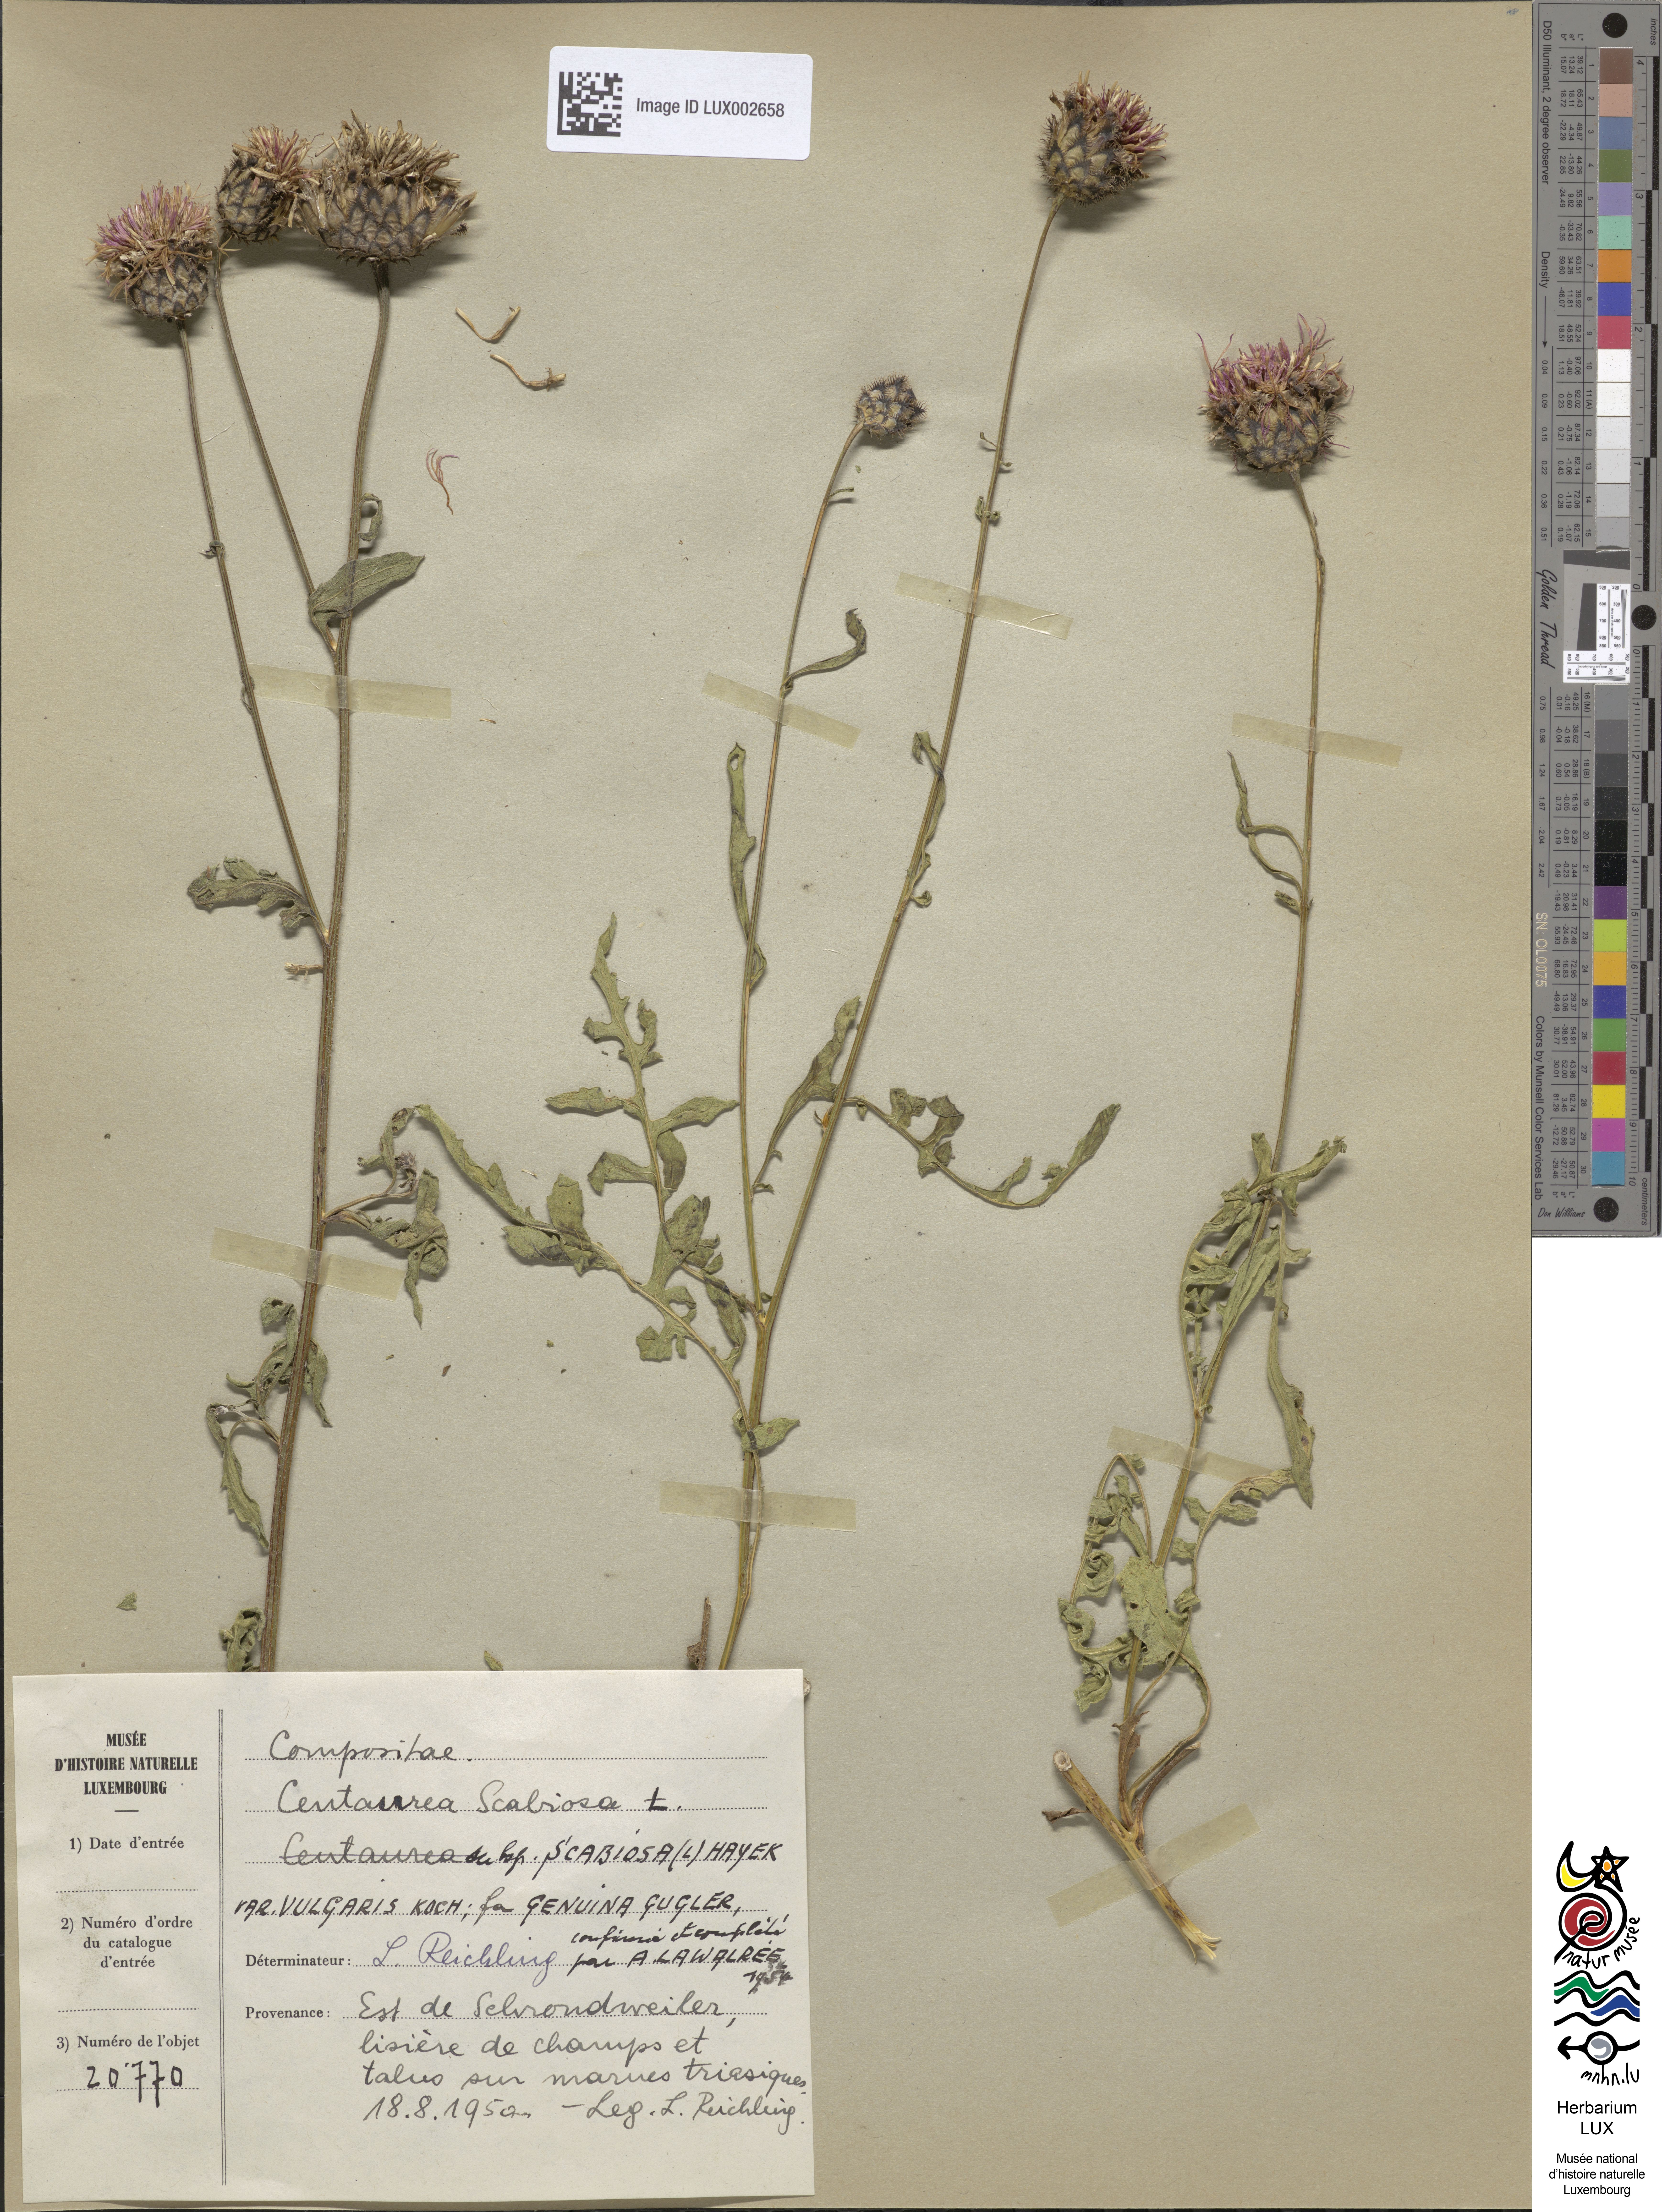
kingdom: Plantae
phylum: Tracheophyta
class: Magnoliopsida
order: Asterales
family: Asteraceae
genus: Centaurea
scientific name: Centaurea scabiosa
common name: Greater knapweed
